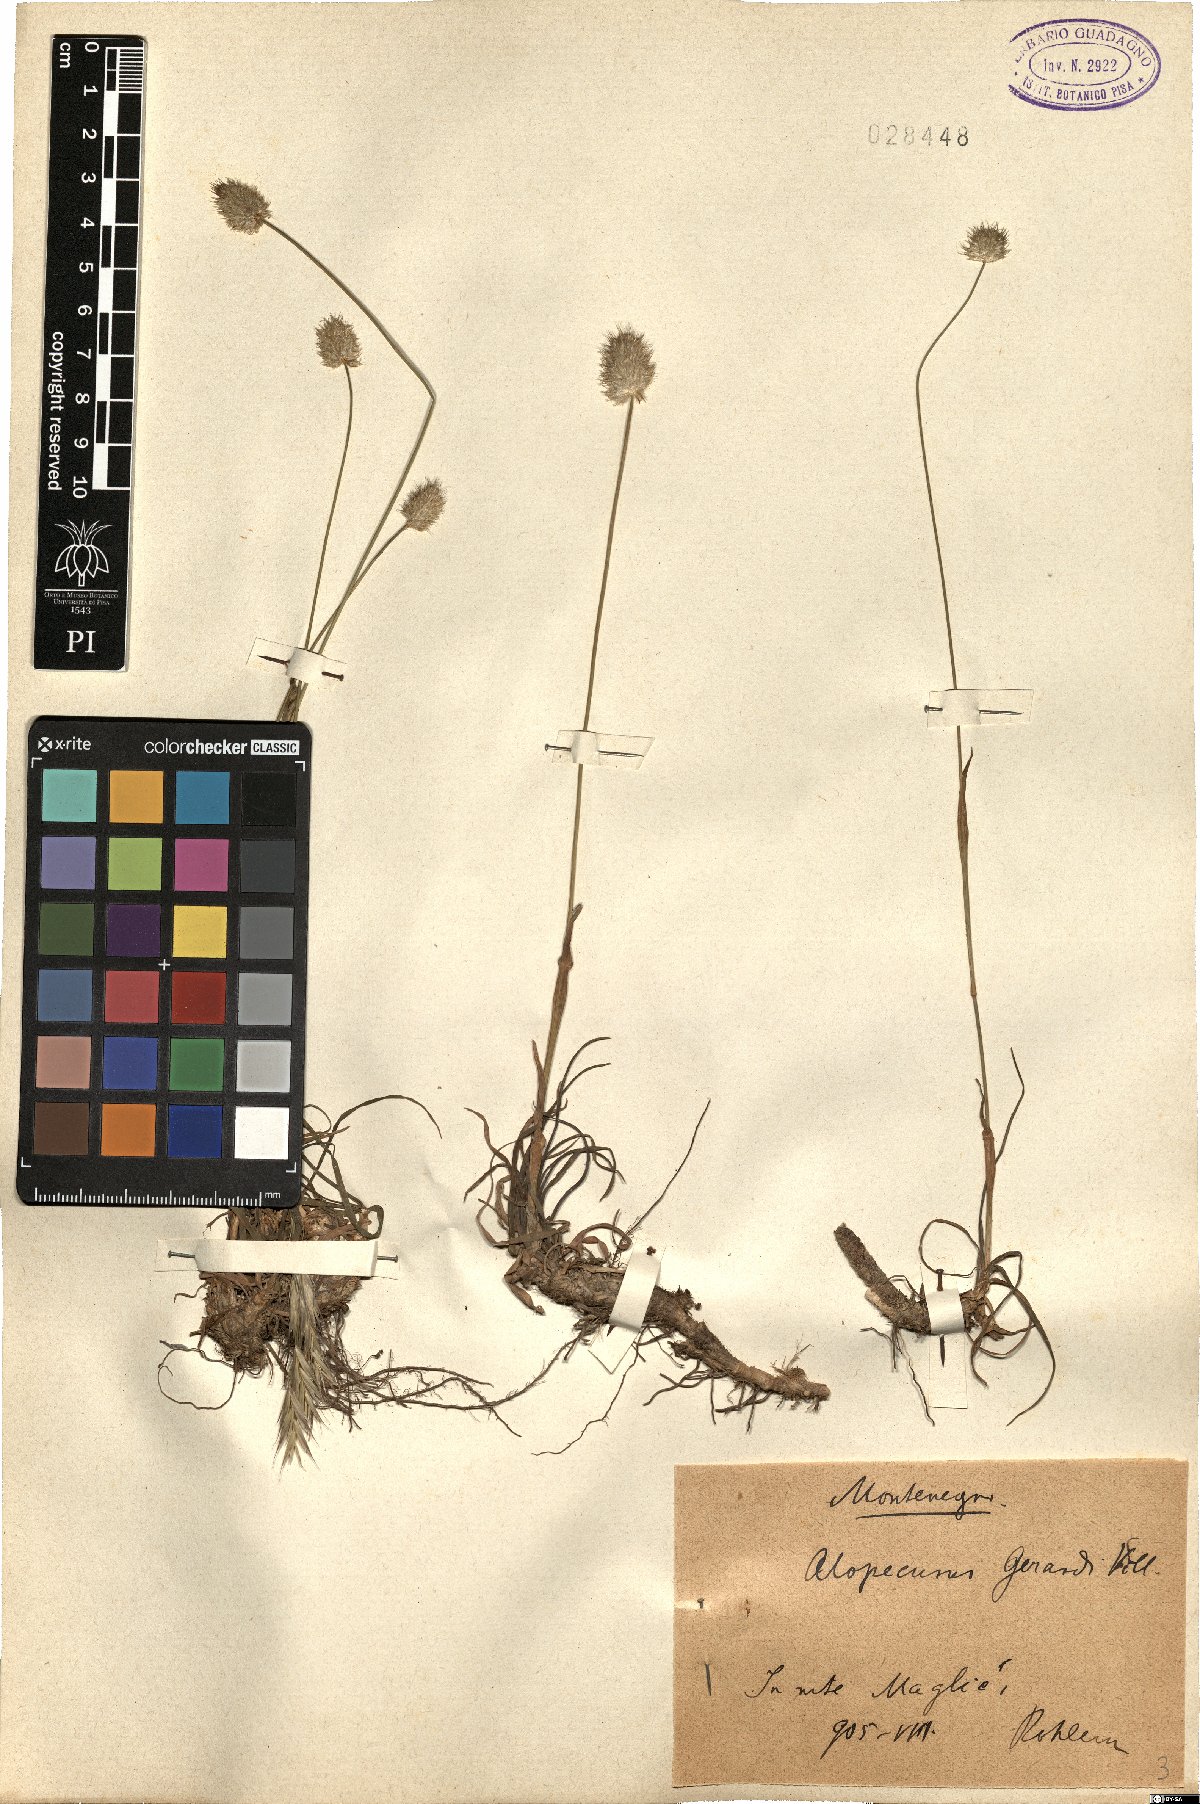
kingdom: Plantae
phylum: Tracheophyta
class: Liliopsida
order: Poales
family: Poaceae
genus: Alopecurus
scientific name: Alopecurus gerardii
